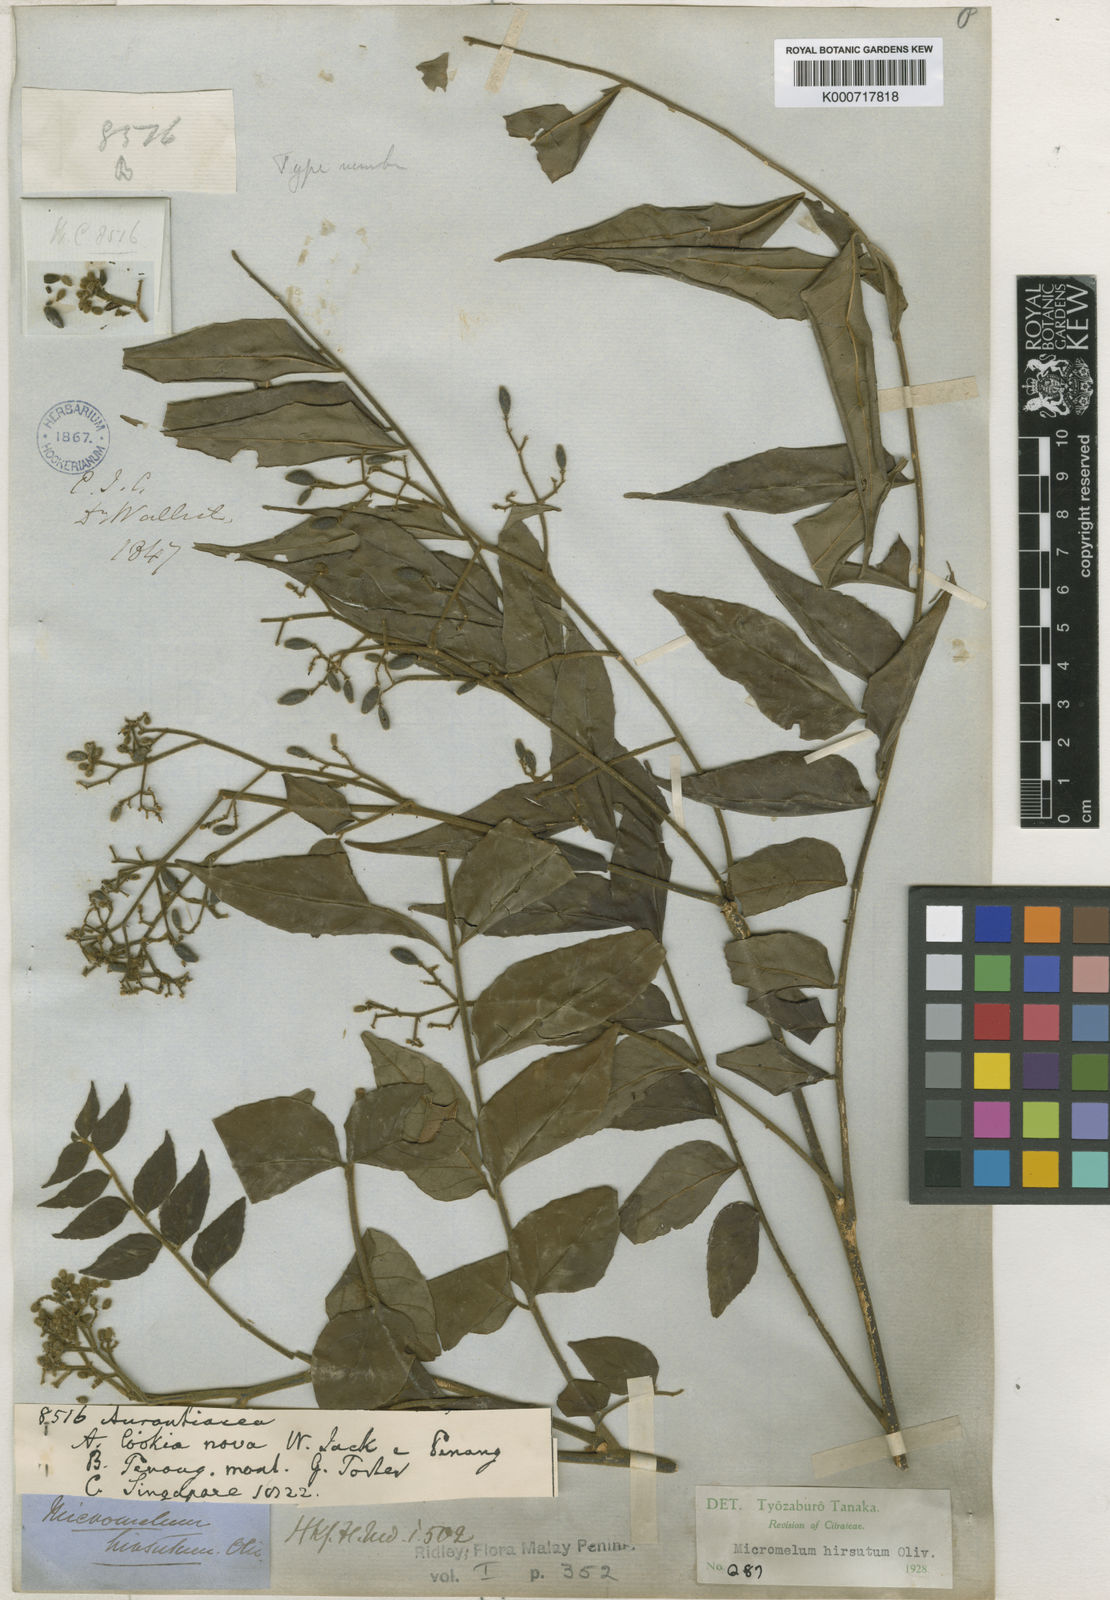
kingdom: Plantae
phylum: Tracheophyta
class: Magnoliopsida
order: Sapindales
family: Rutaceae
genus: Micromelum
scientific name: Micromelum hirsutum
